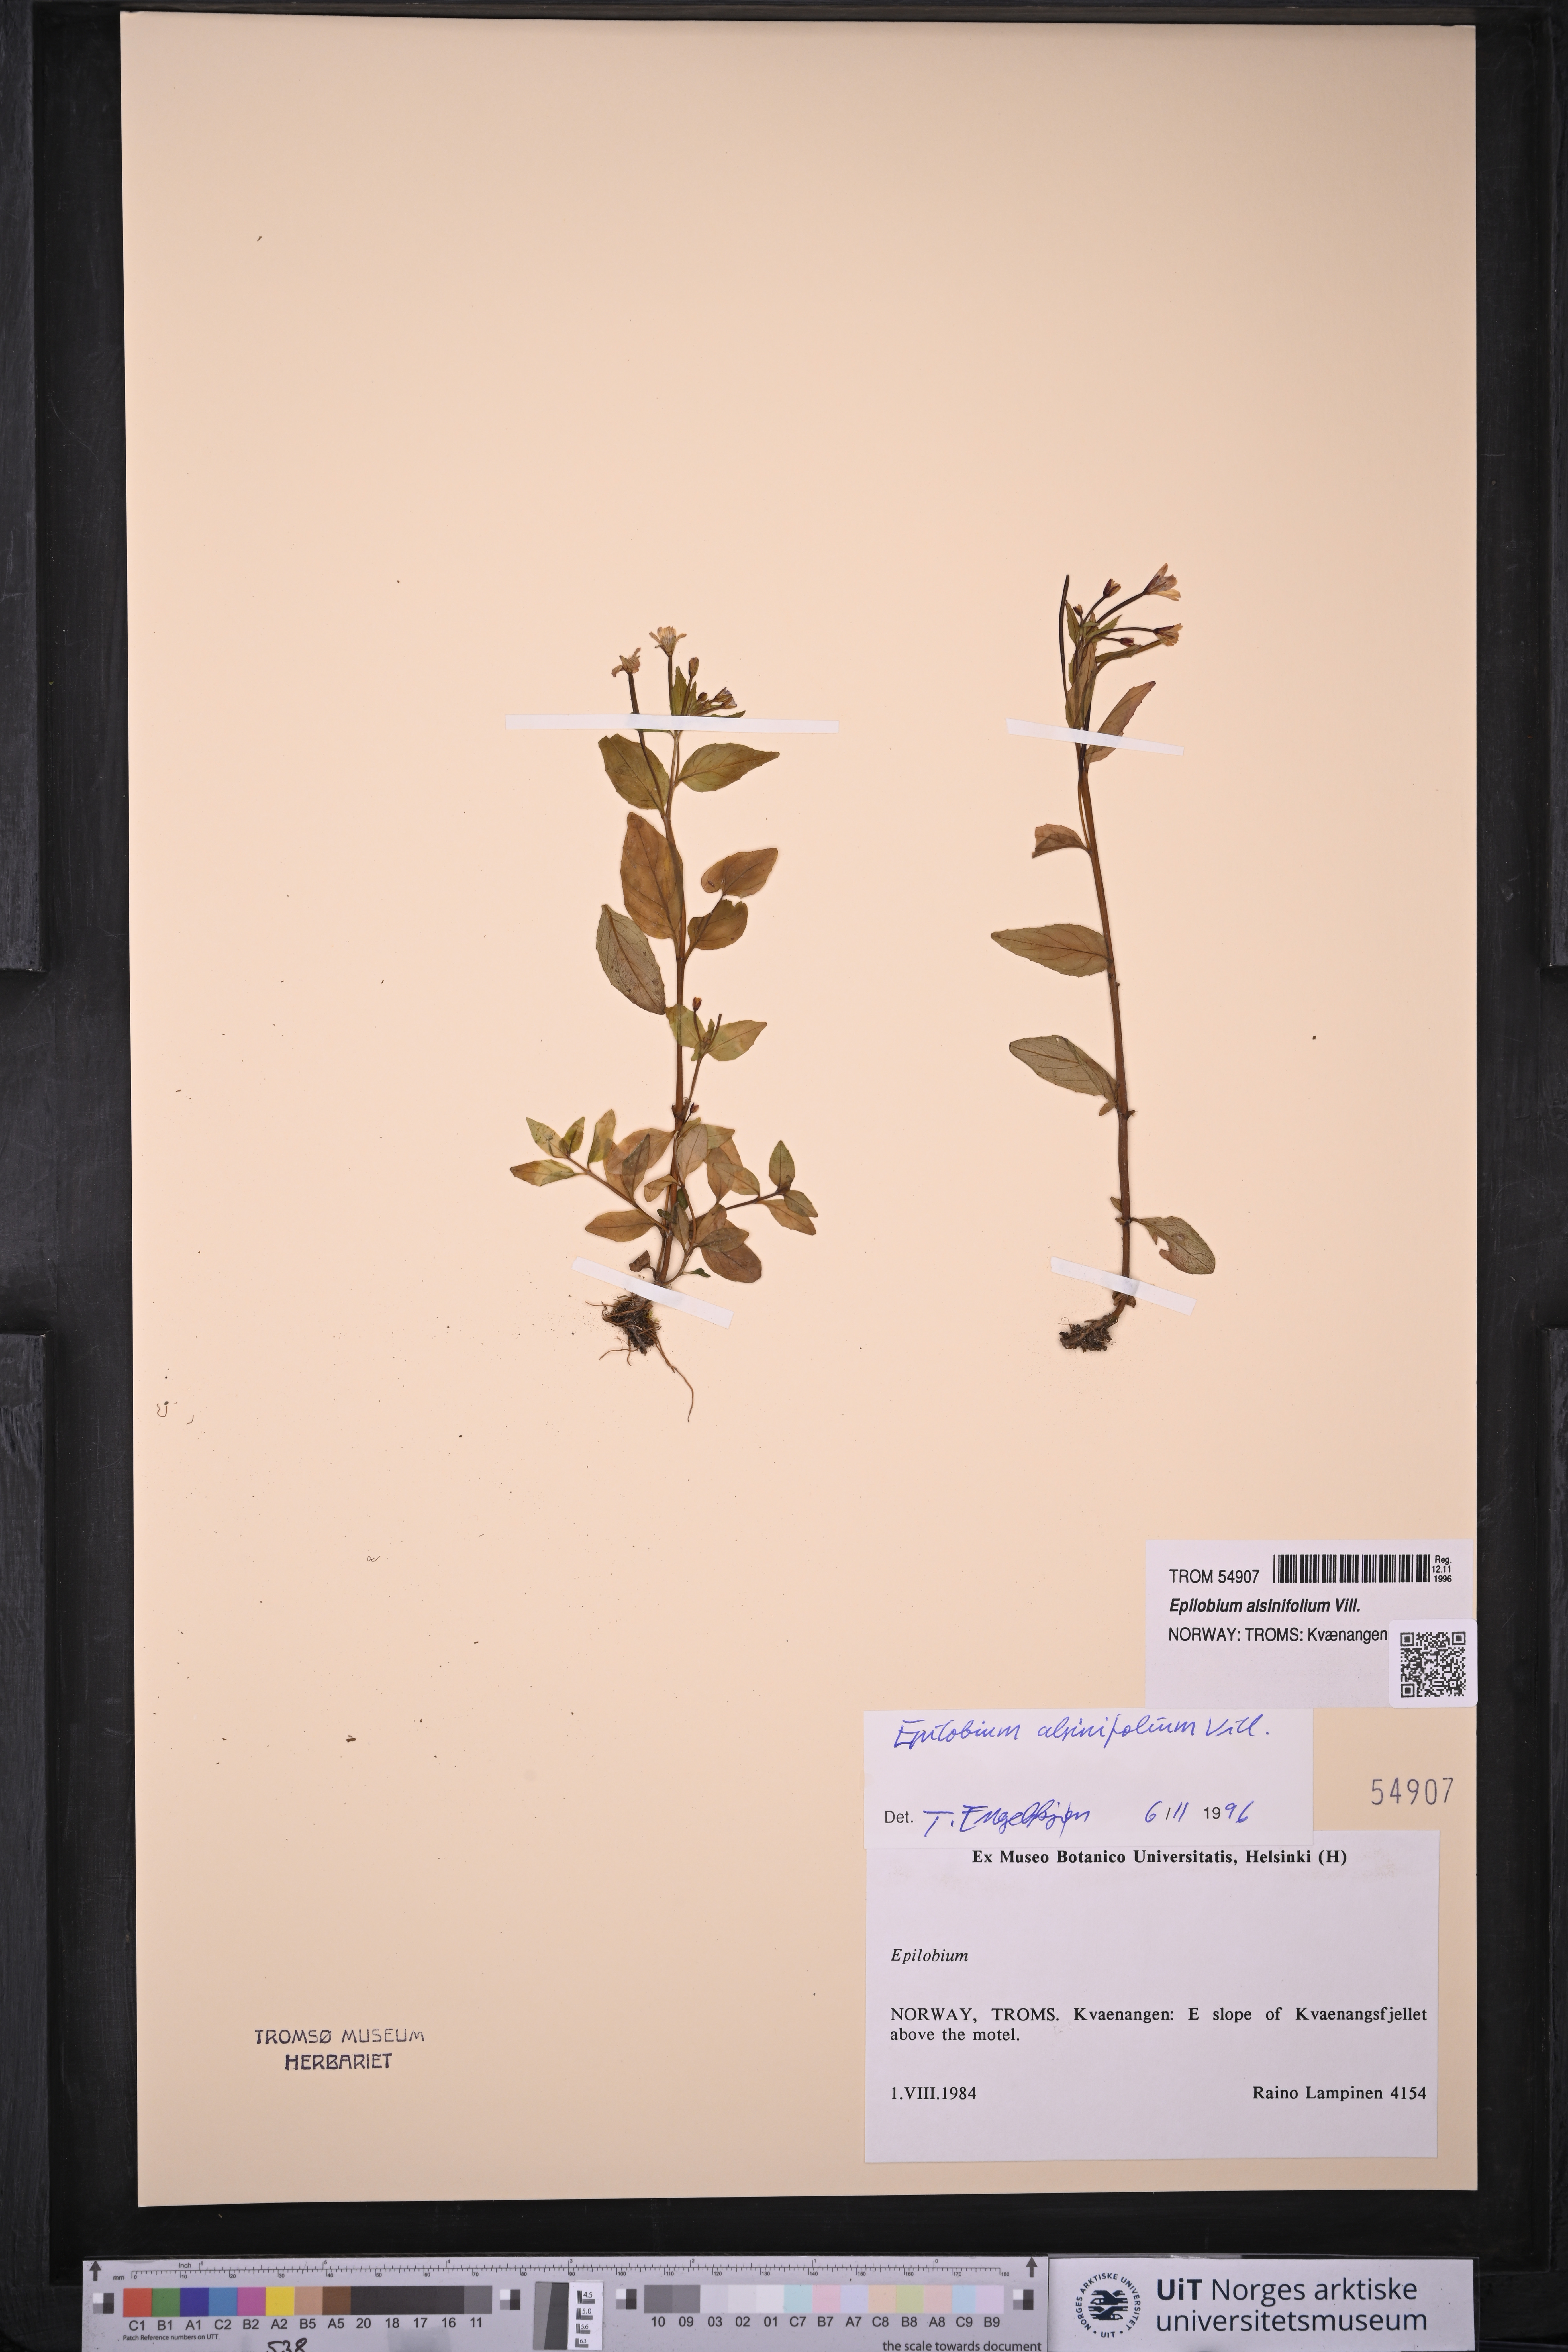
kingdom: Plantae
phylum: Tracheophyta
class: Magnoliopsida
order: Myrtales
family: Onagraceae
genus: Epilobium
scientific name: Epilobium alsinifolium
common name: Chickweed willowherb
